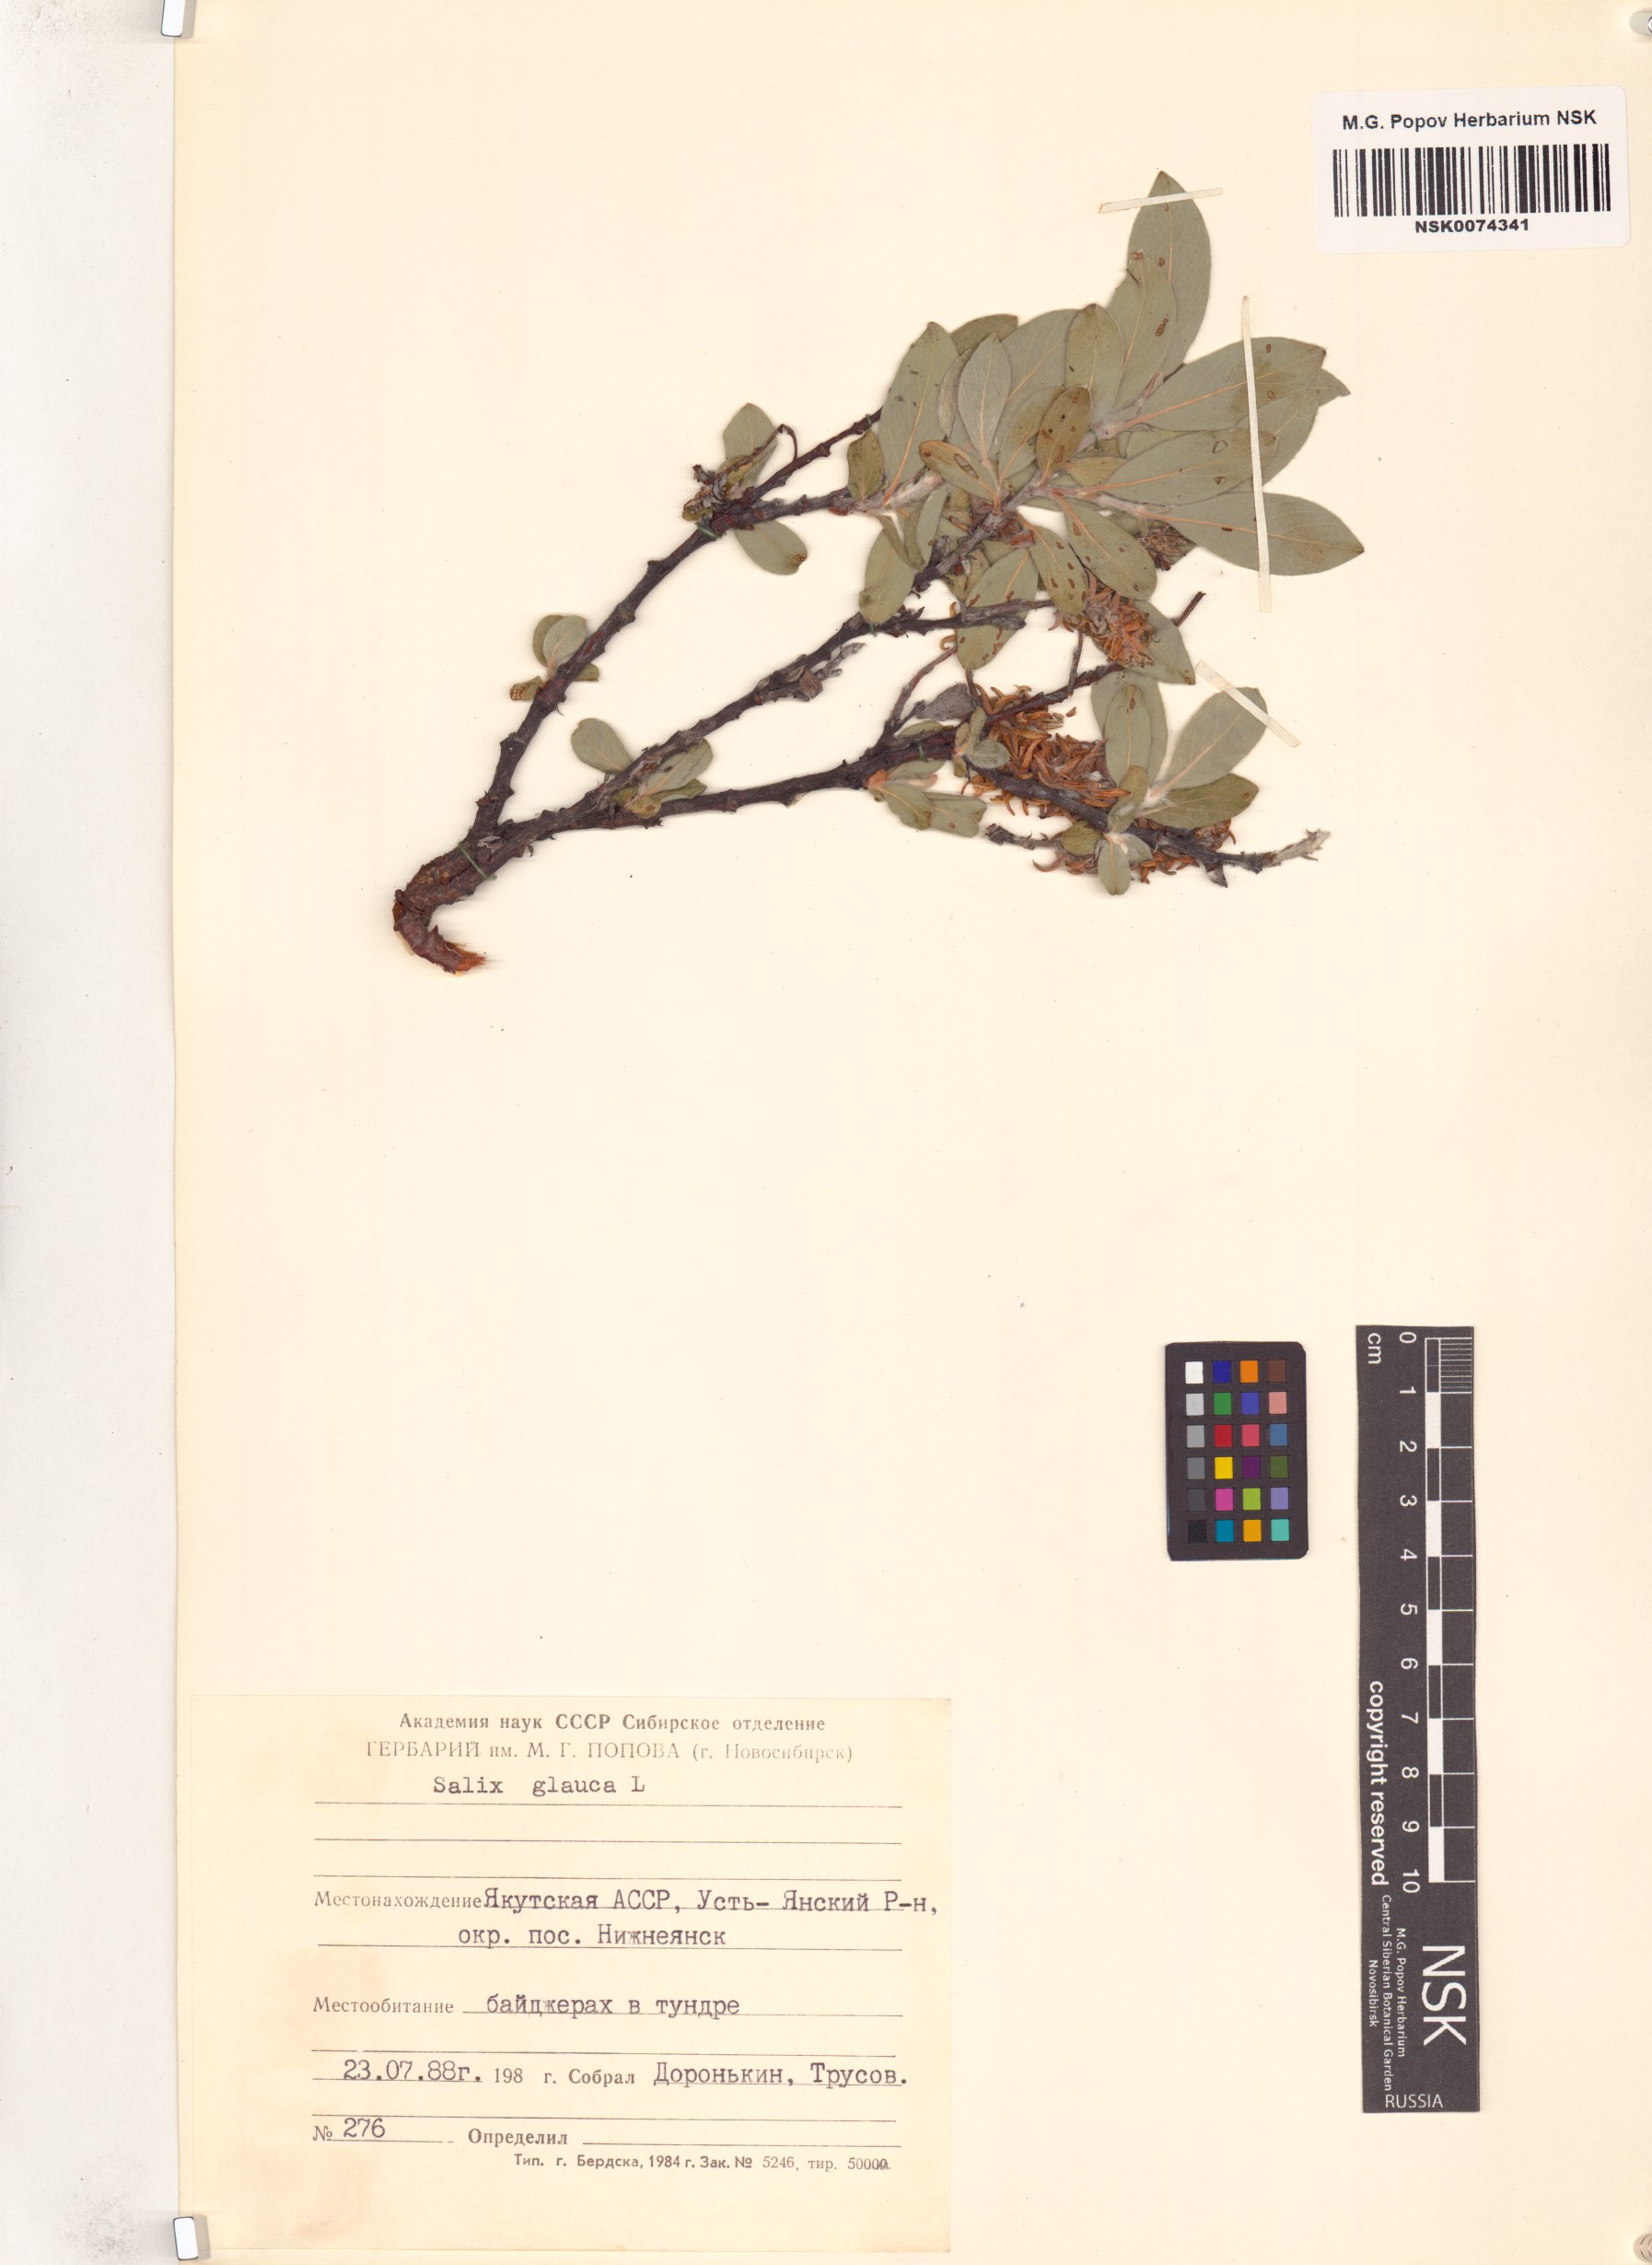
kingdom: Plantae
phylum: Tracheophyta
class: Magnoliopsida
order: Malpighiales
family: Salicaceae
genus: Salix
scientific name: Salix glauca
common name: Glaucous willow
